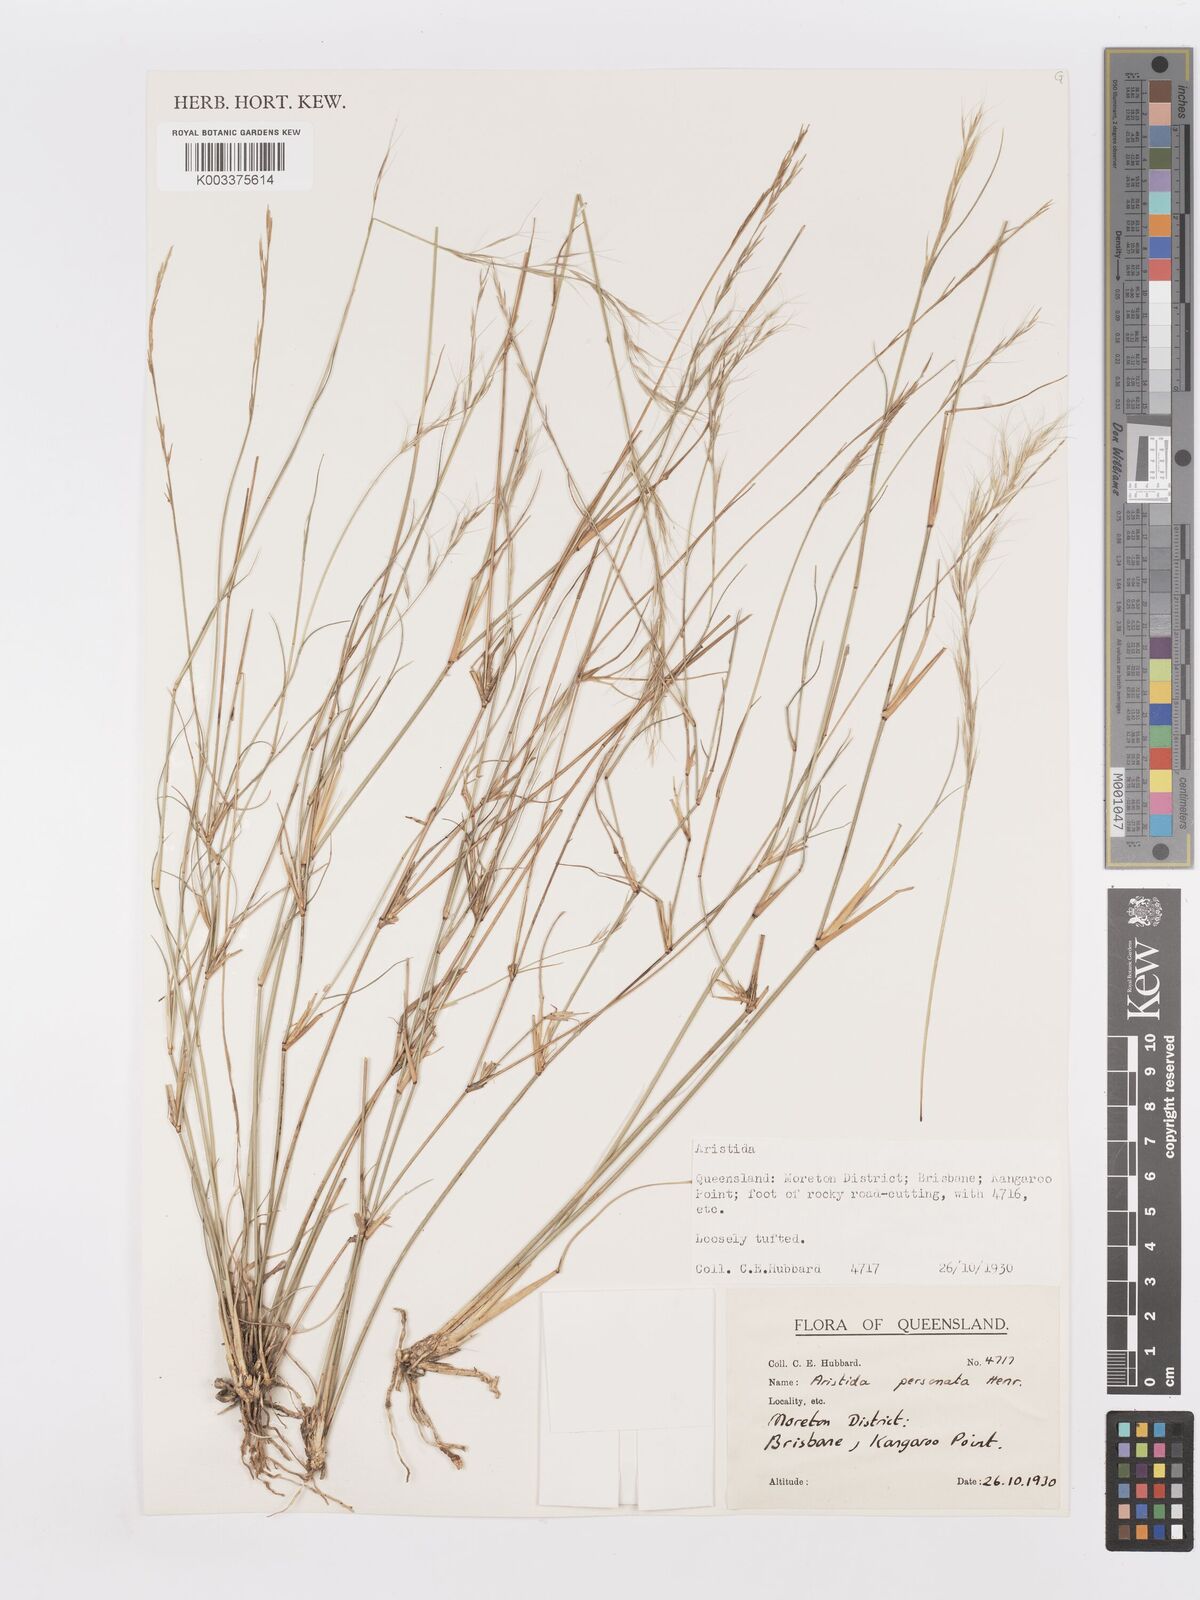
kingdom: Plantae
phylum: Tracheophyta
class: Liliopsida
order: Poales
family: Poaceae
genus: Aristida
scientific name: Aristida personata
